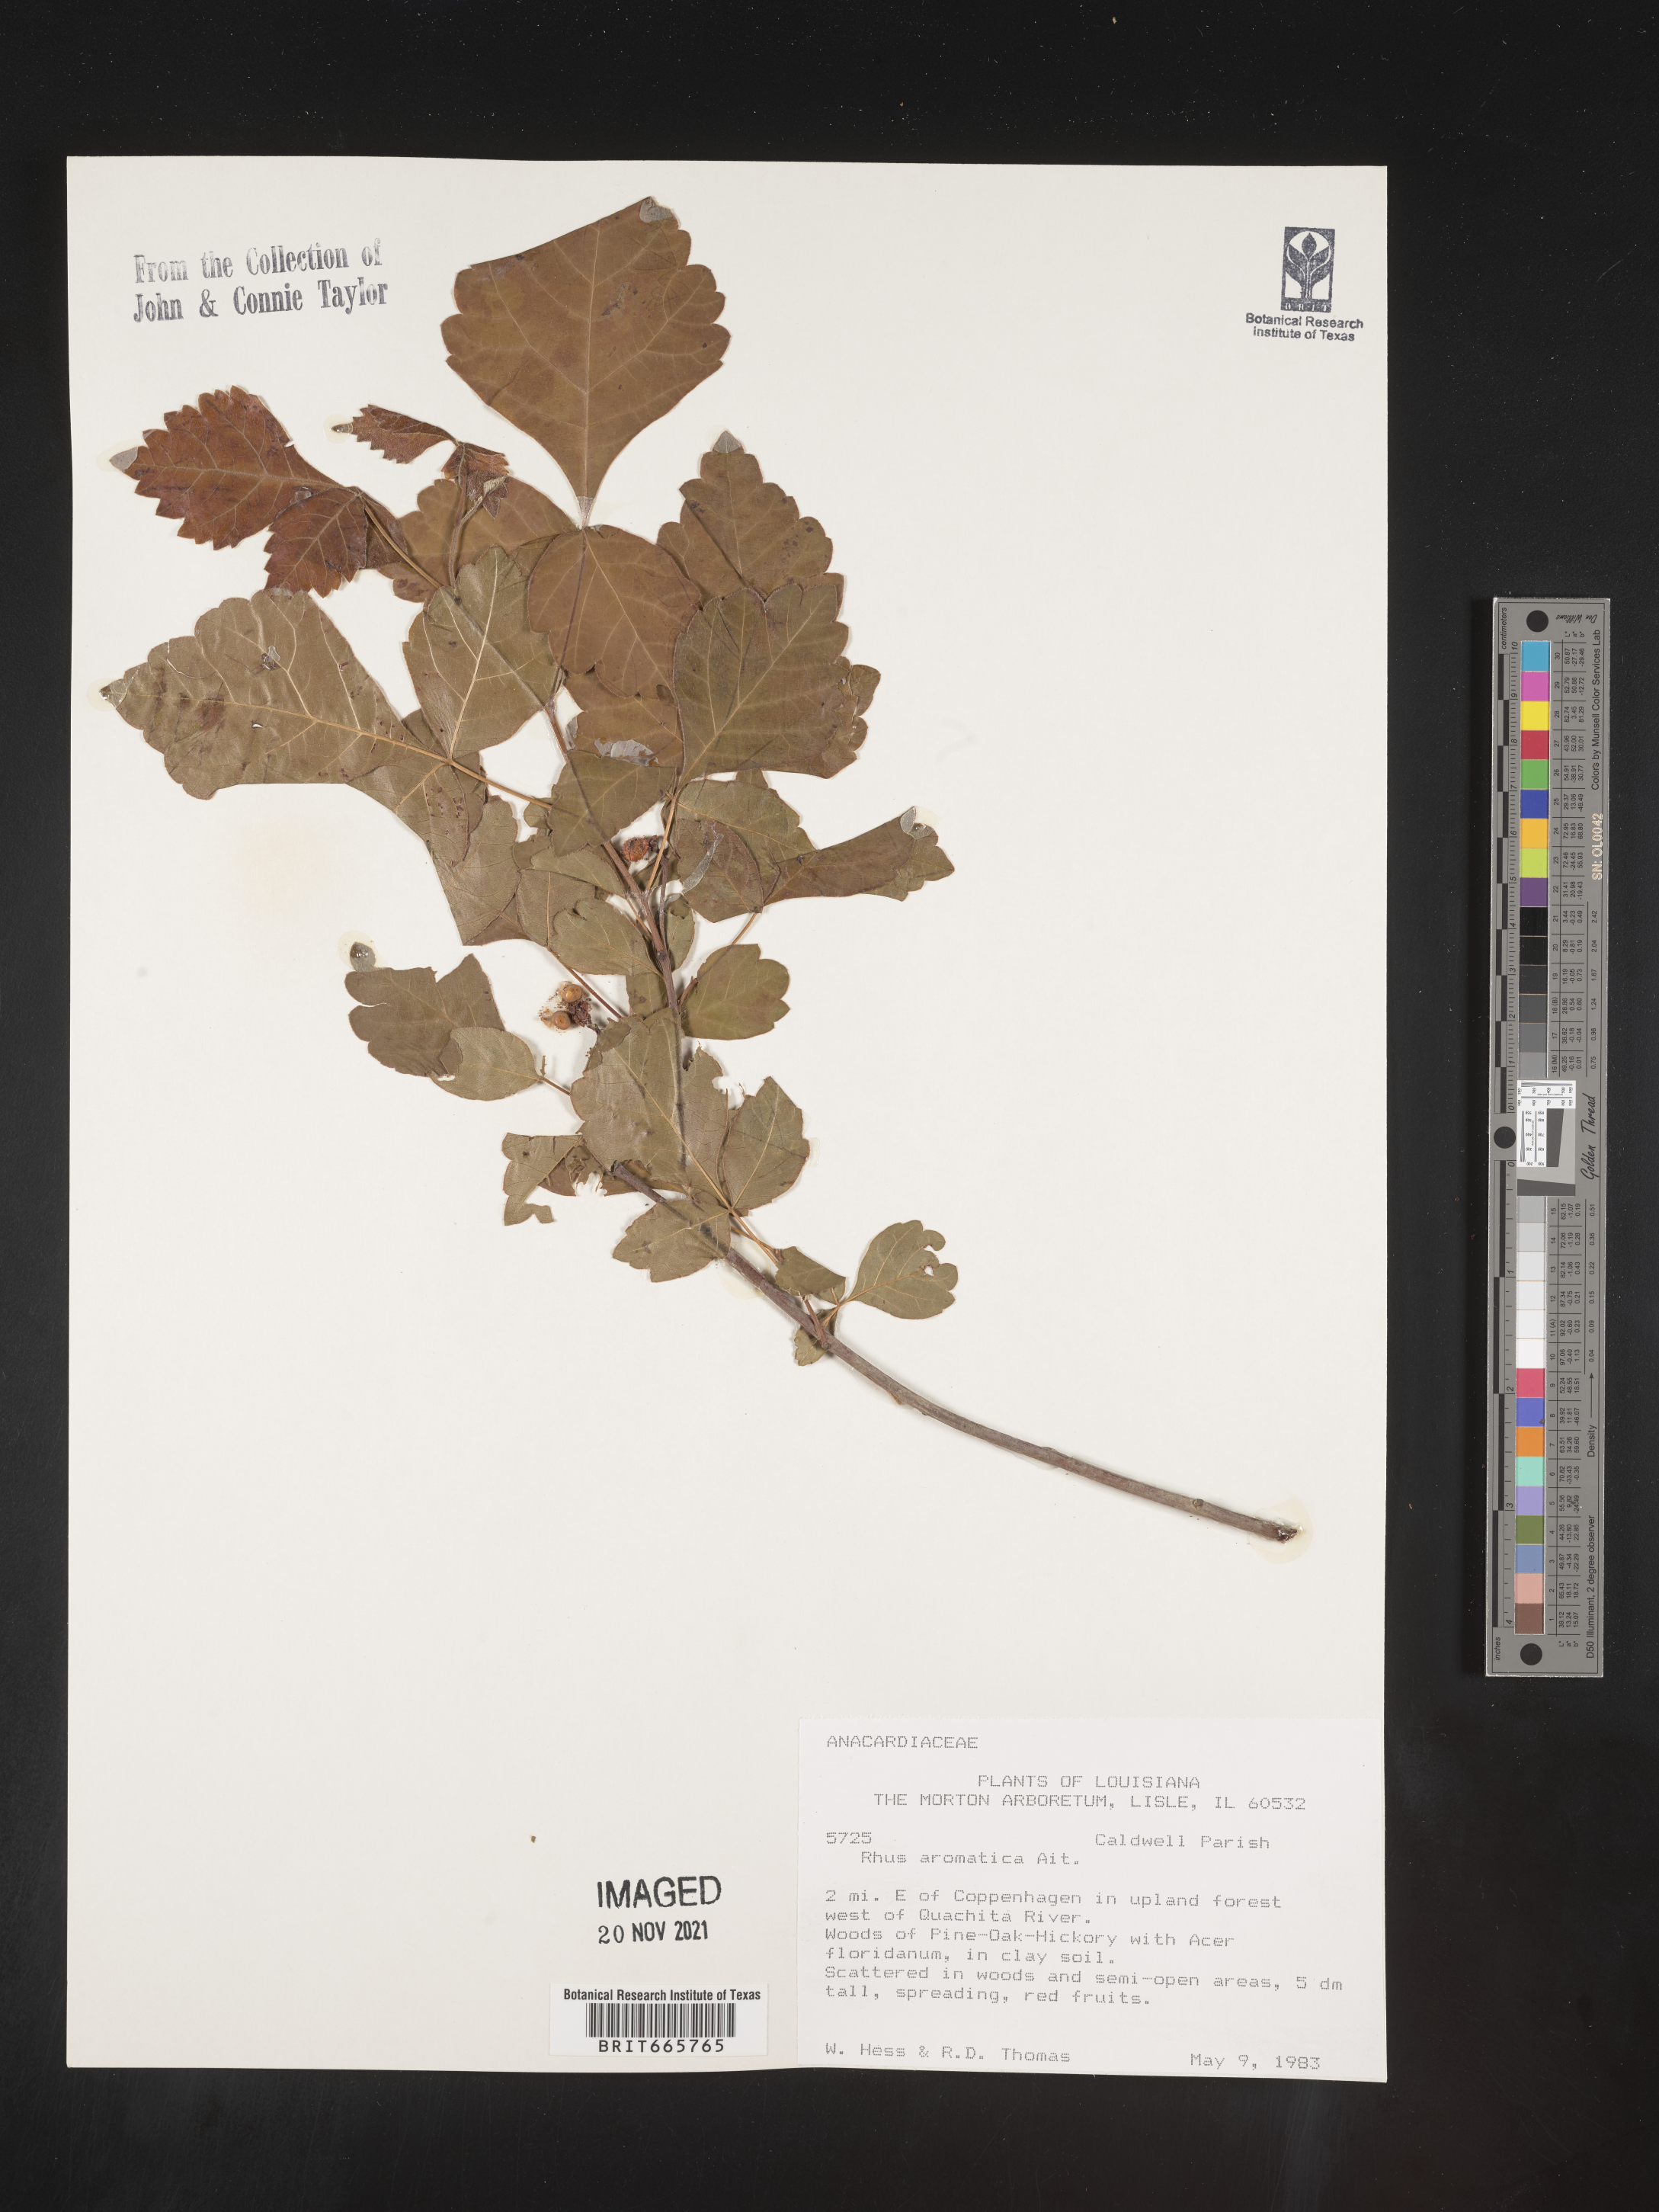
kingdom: Plantae
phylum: Tracheophyta
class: Magnoliopsida
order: Sapindales
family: Anacardiaceae
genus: Rhus
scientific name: Rhus aromatica
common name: Aromatic sumac
